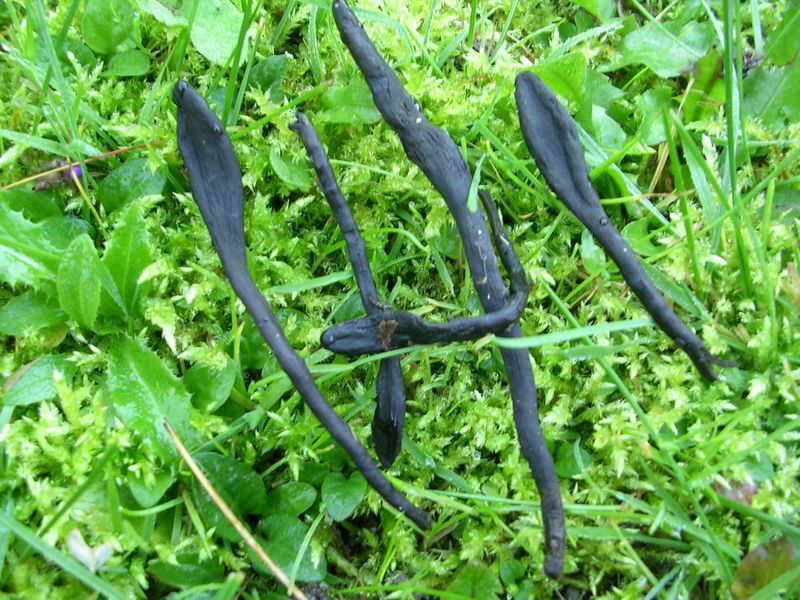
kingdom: Fungi
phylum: Ascomycota
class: Geoglossomycetes
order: Geoglossales
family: Geoglossaceae
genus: Geoglossum
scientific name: Geoglossum umbratile
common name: slank jordtunge
